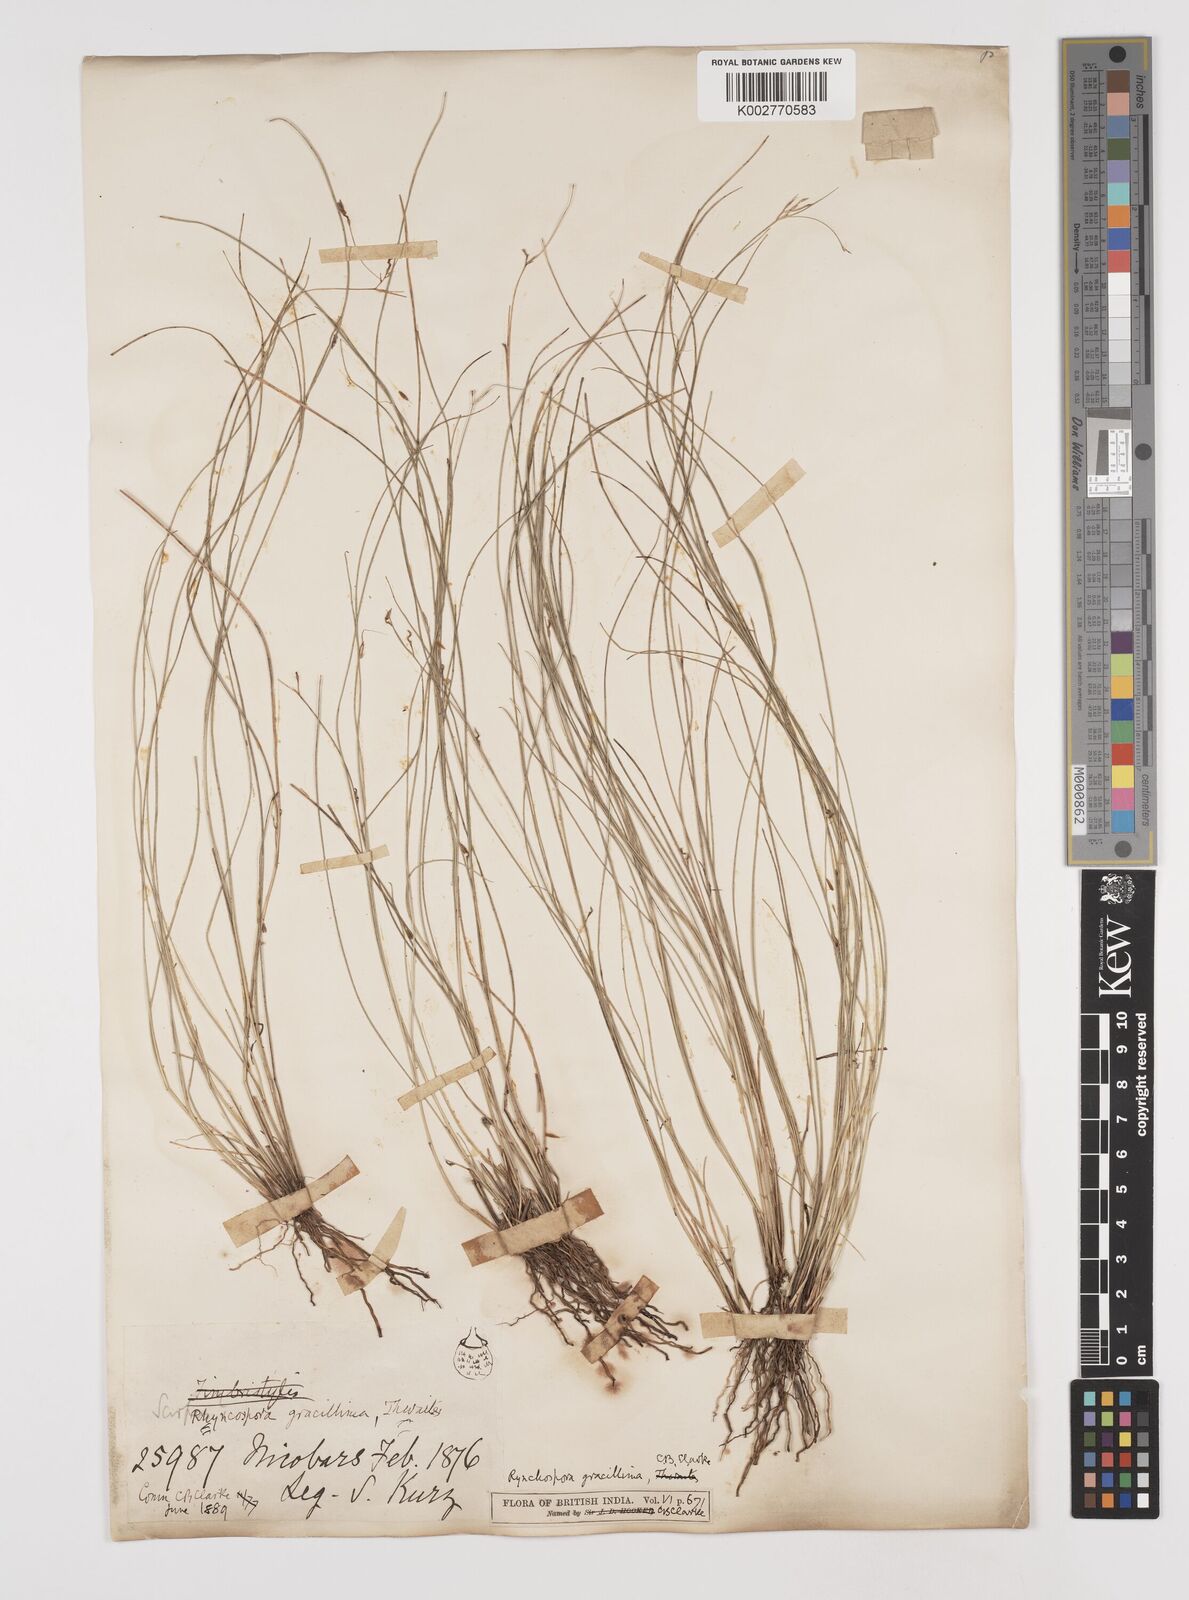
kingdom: Plantae
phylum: Tracheophyta
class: Liliopsida
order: Poales
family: Cyperaceae
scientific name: Cyperaceae
